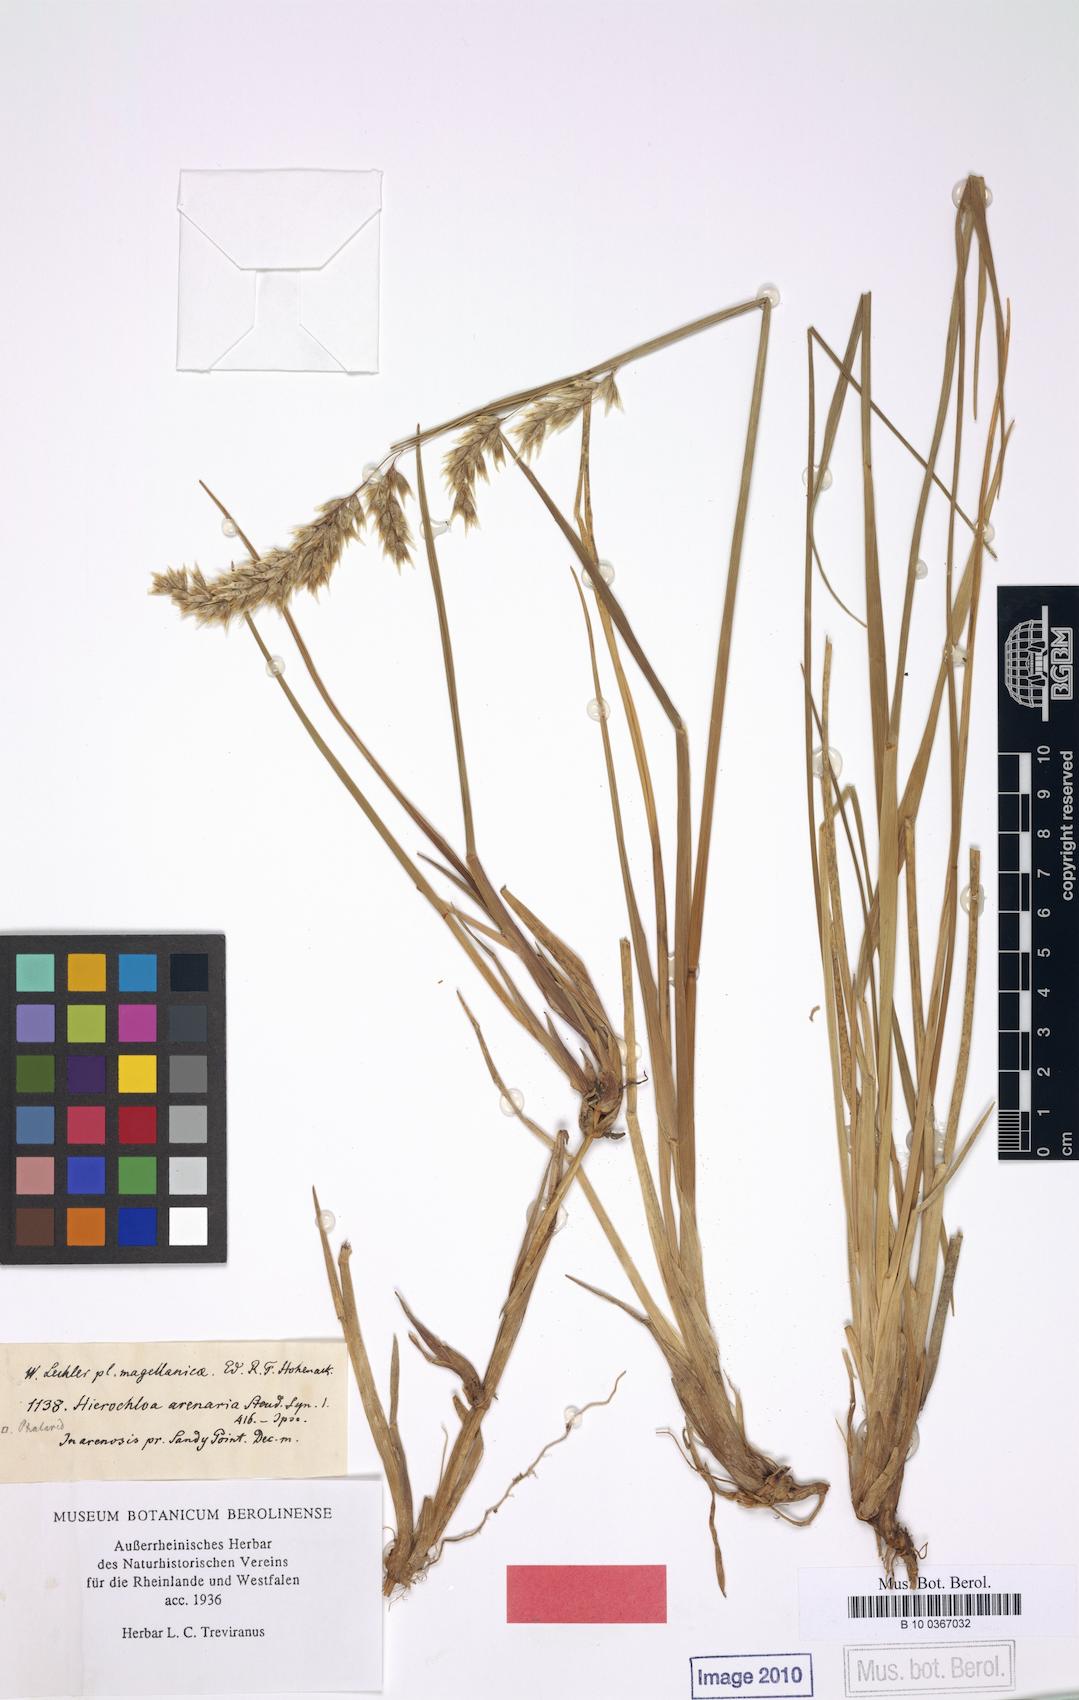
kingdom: Plantae
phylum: Tracheophyta
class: Liliopsida
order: Poales
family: Poaceae
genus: Anthoxanthum
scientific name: Anthoxanthum redolens
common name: Sweet holy grass
